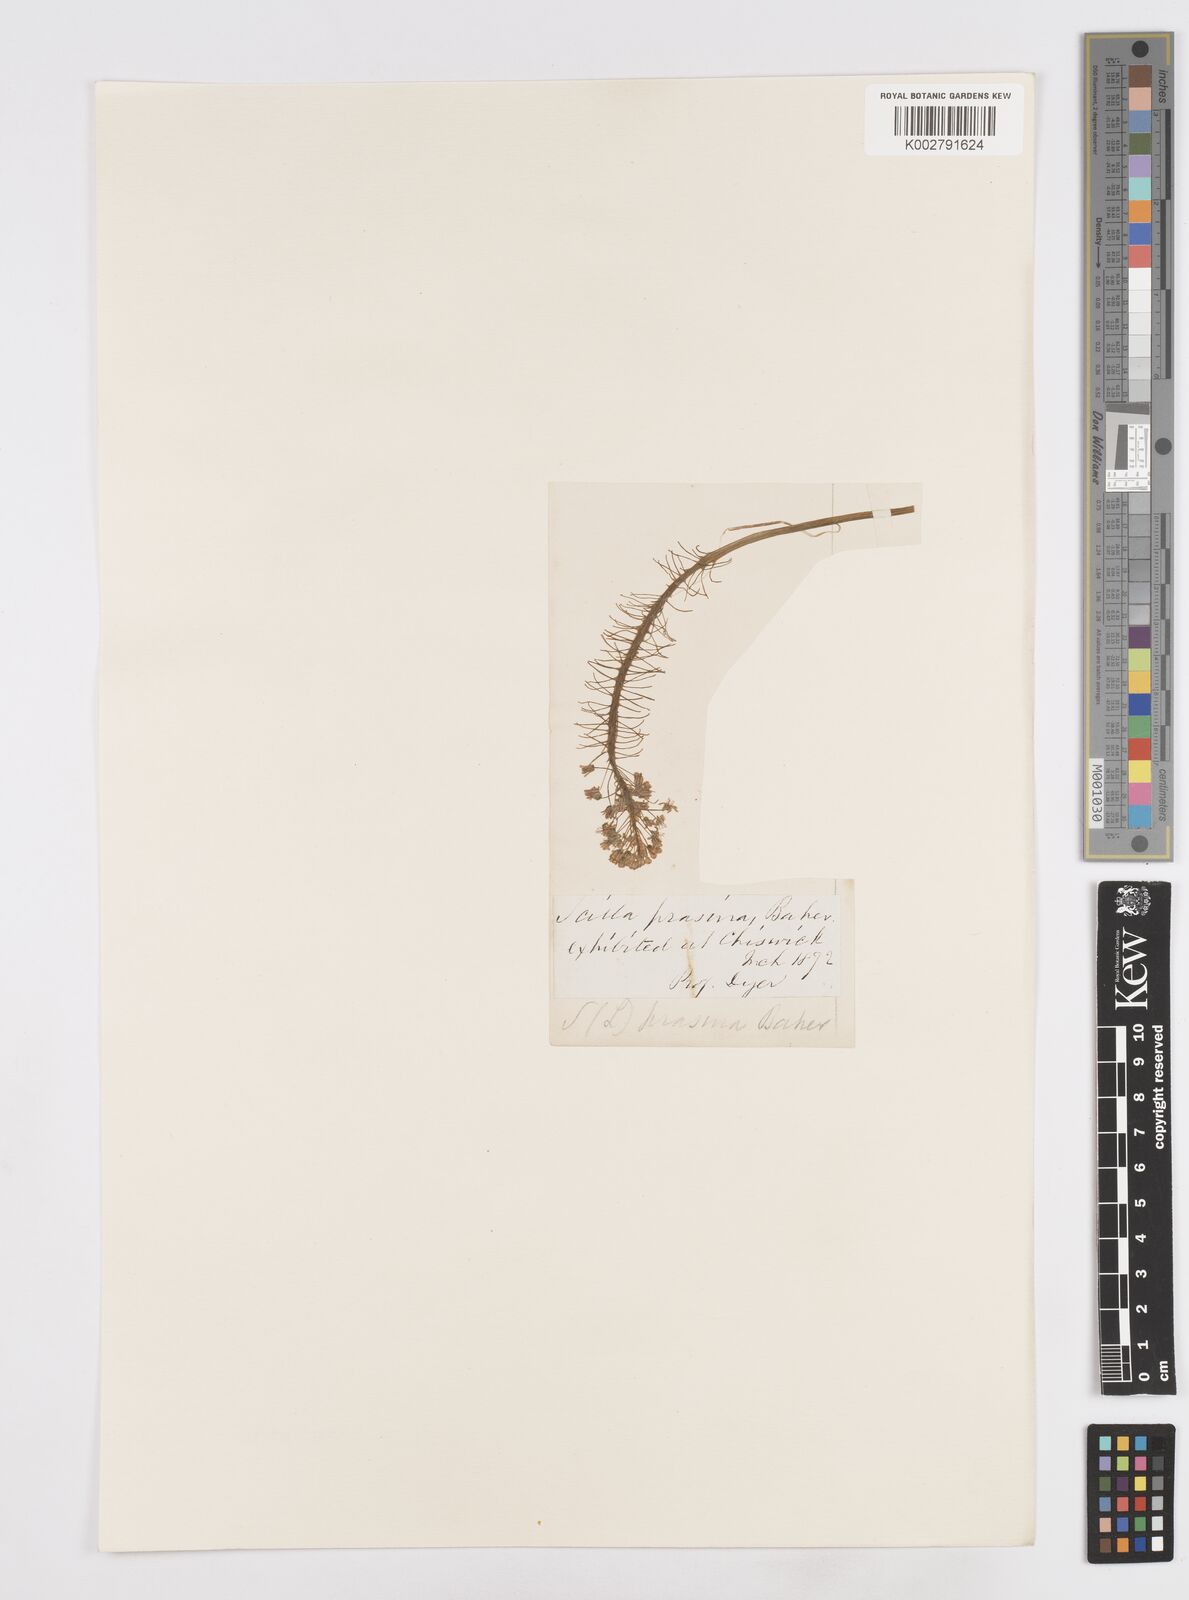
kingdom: Plantae
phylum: Tracheophyta
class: Liliopsida
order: Asparagales
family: Asparagaceae
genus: Scilla
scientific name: Scilla
